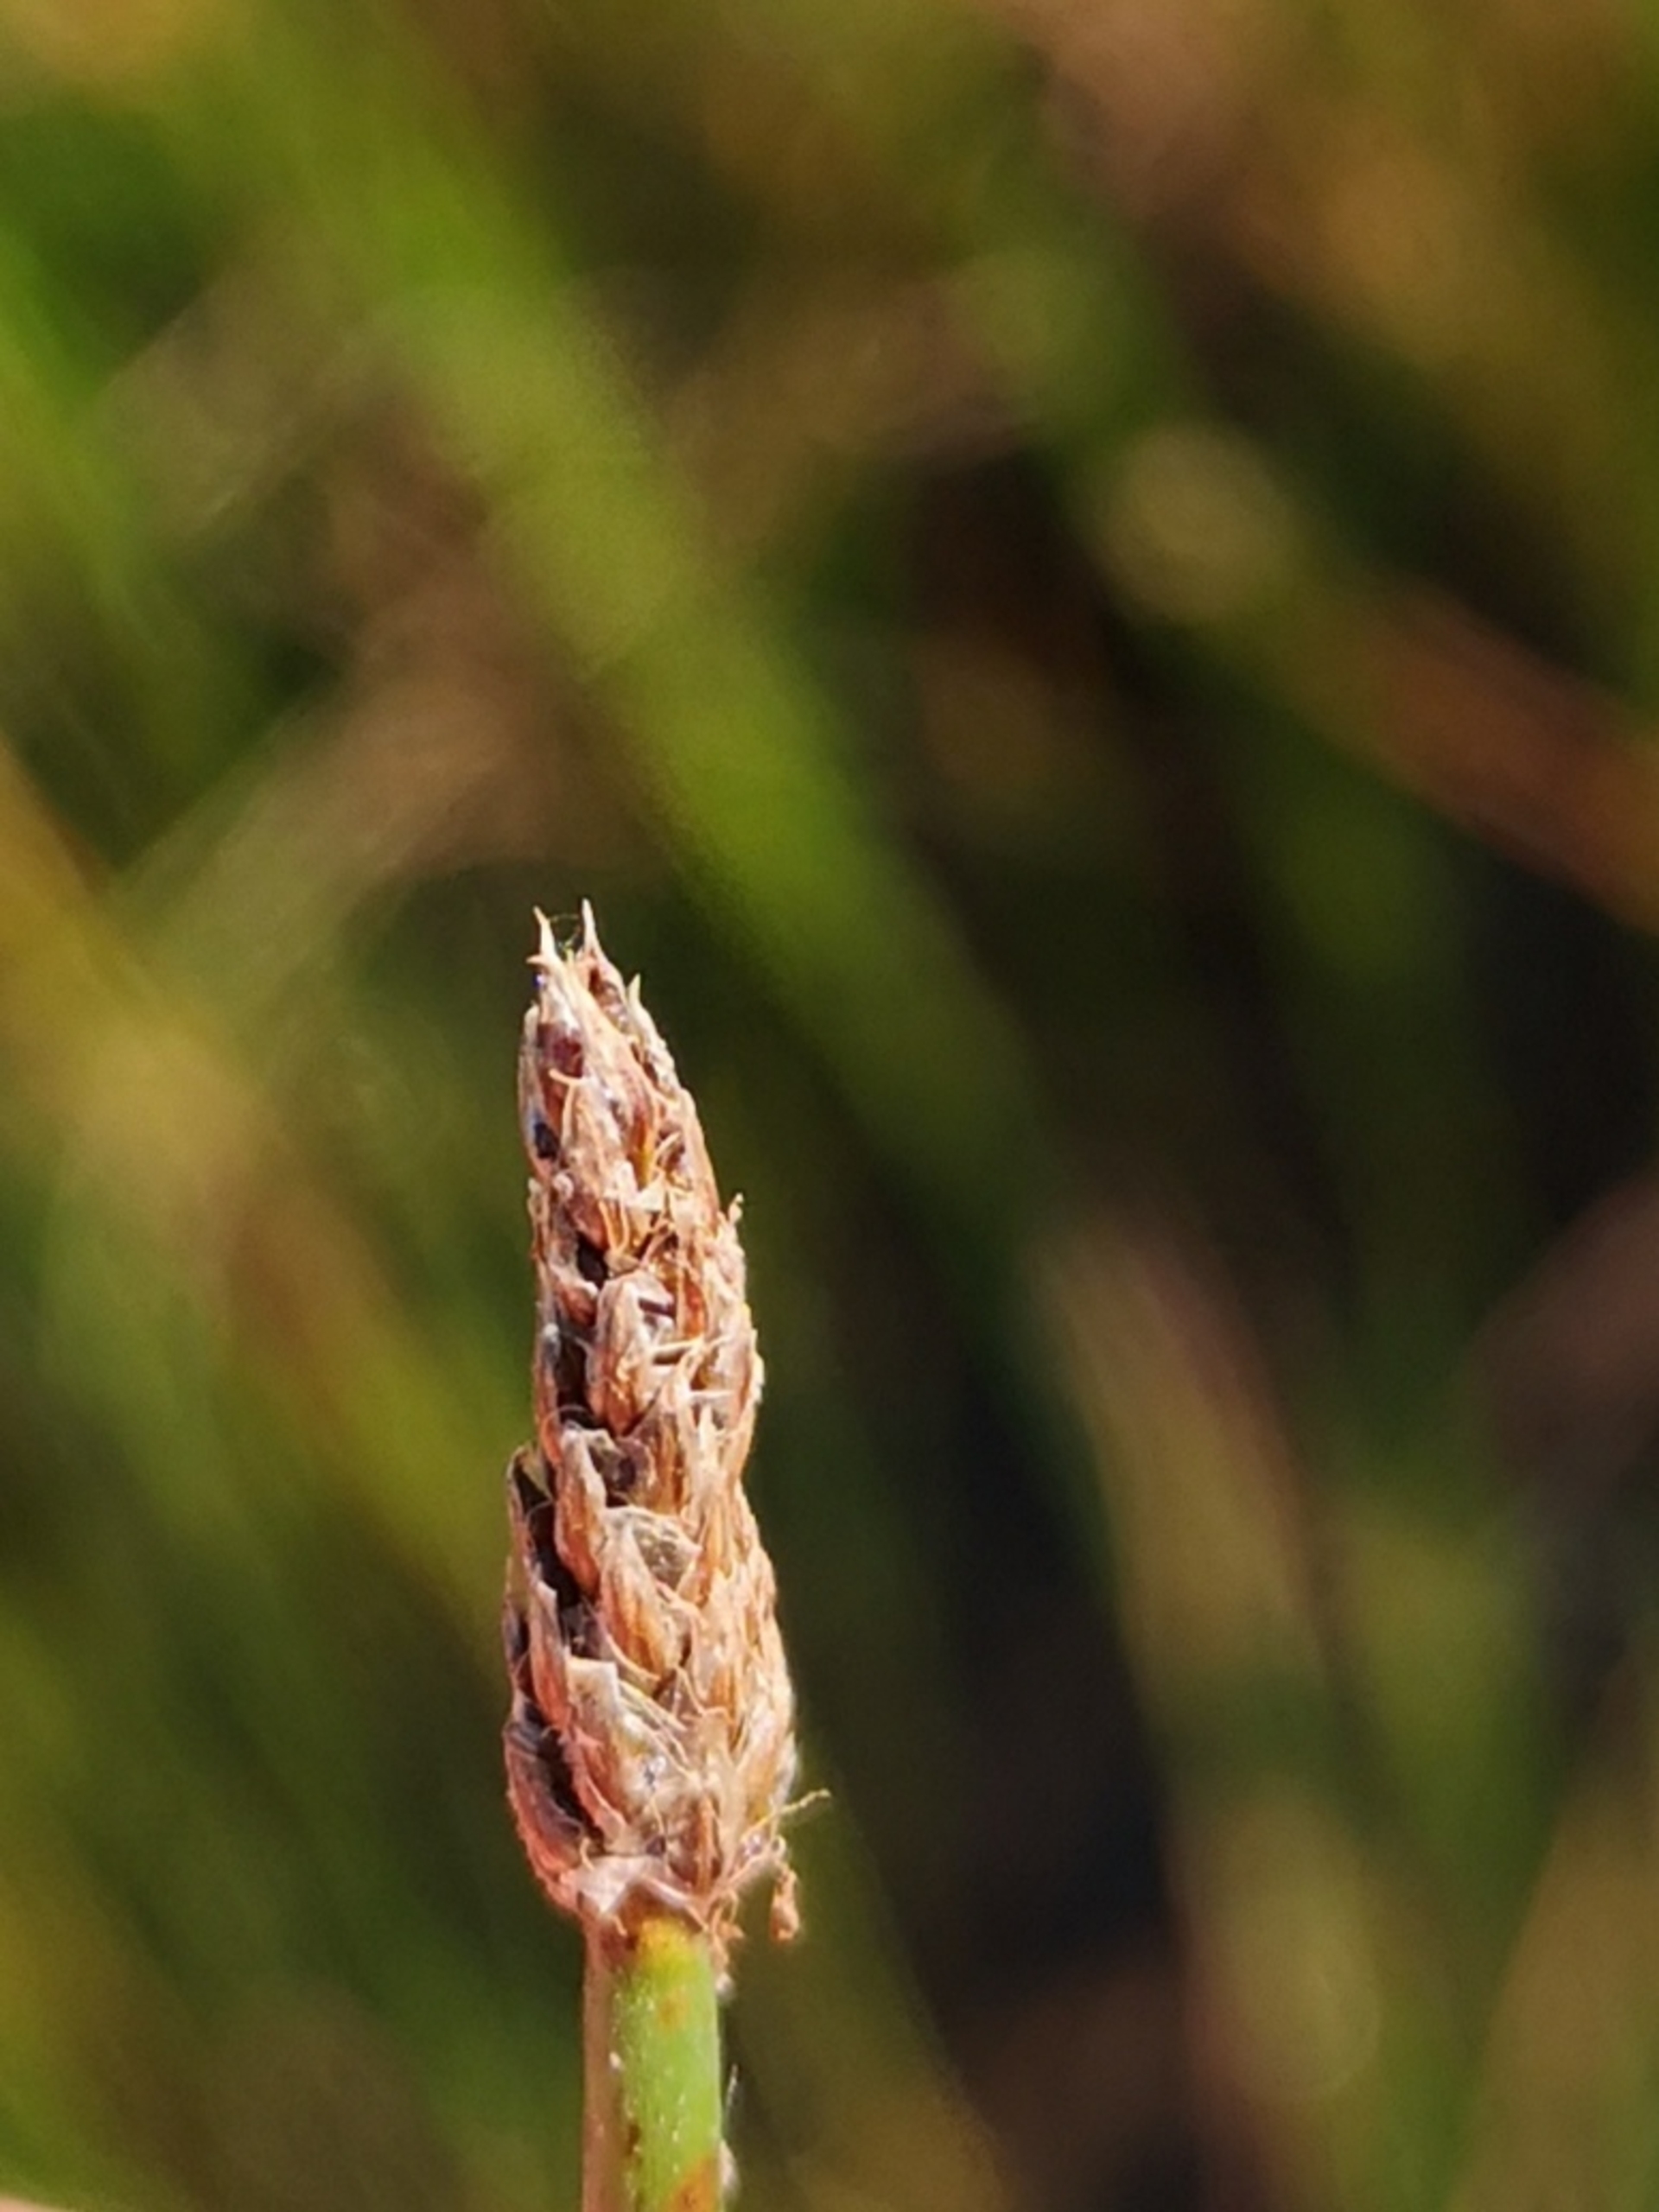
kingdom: Plantae
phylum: Tracheophyta
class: Liliopsida
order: Poales
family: Cyperaceae
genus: Eleocharis
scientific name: Eleocharis palustris
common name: Almindelig sumpstrå
